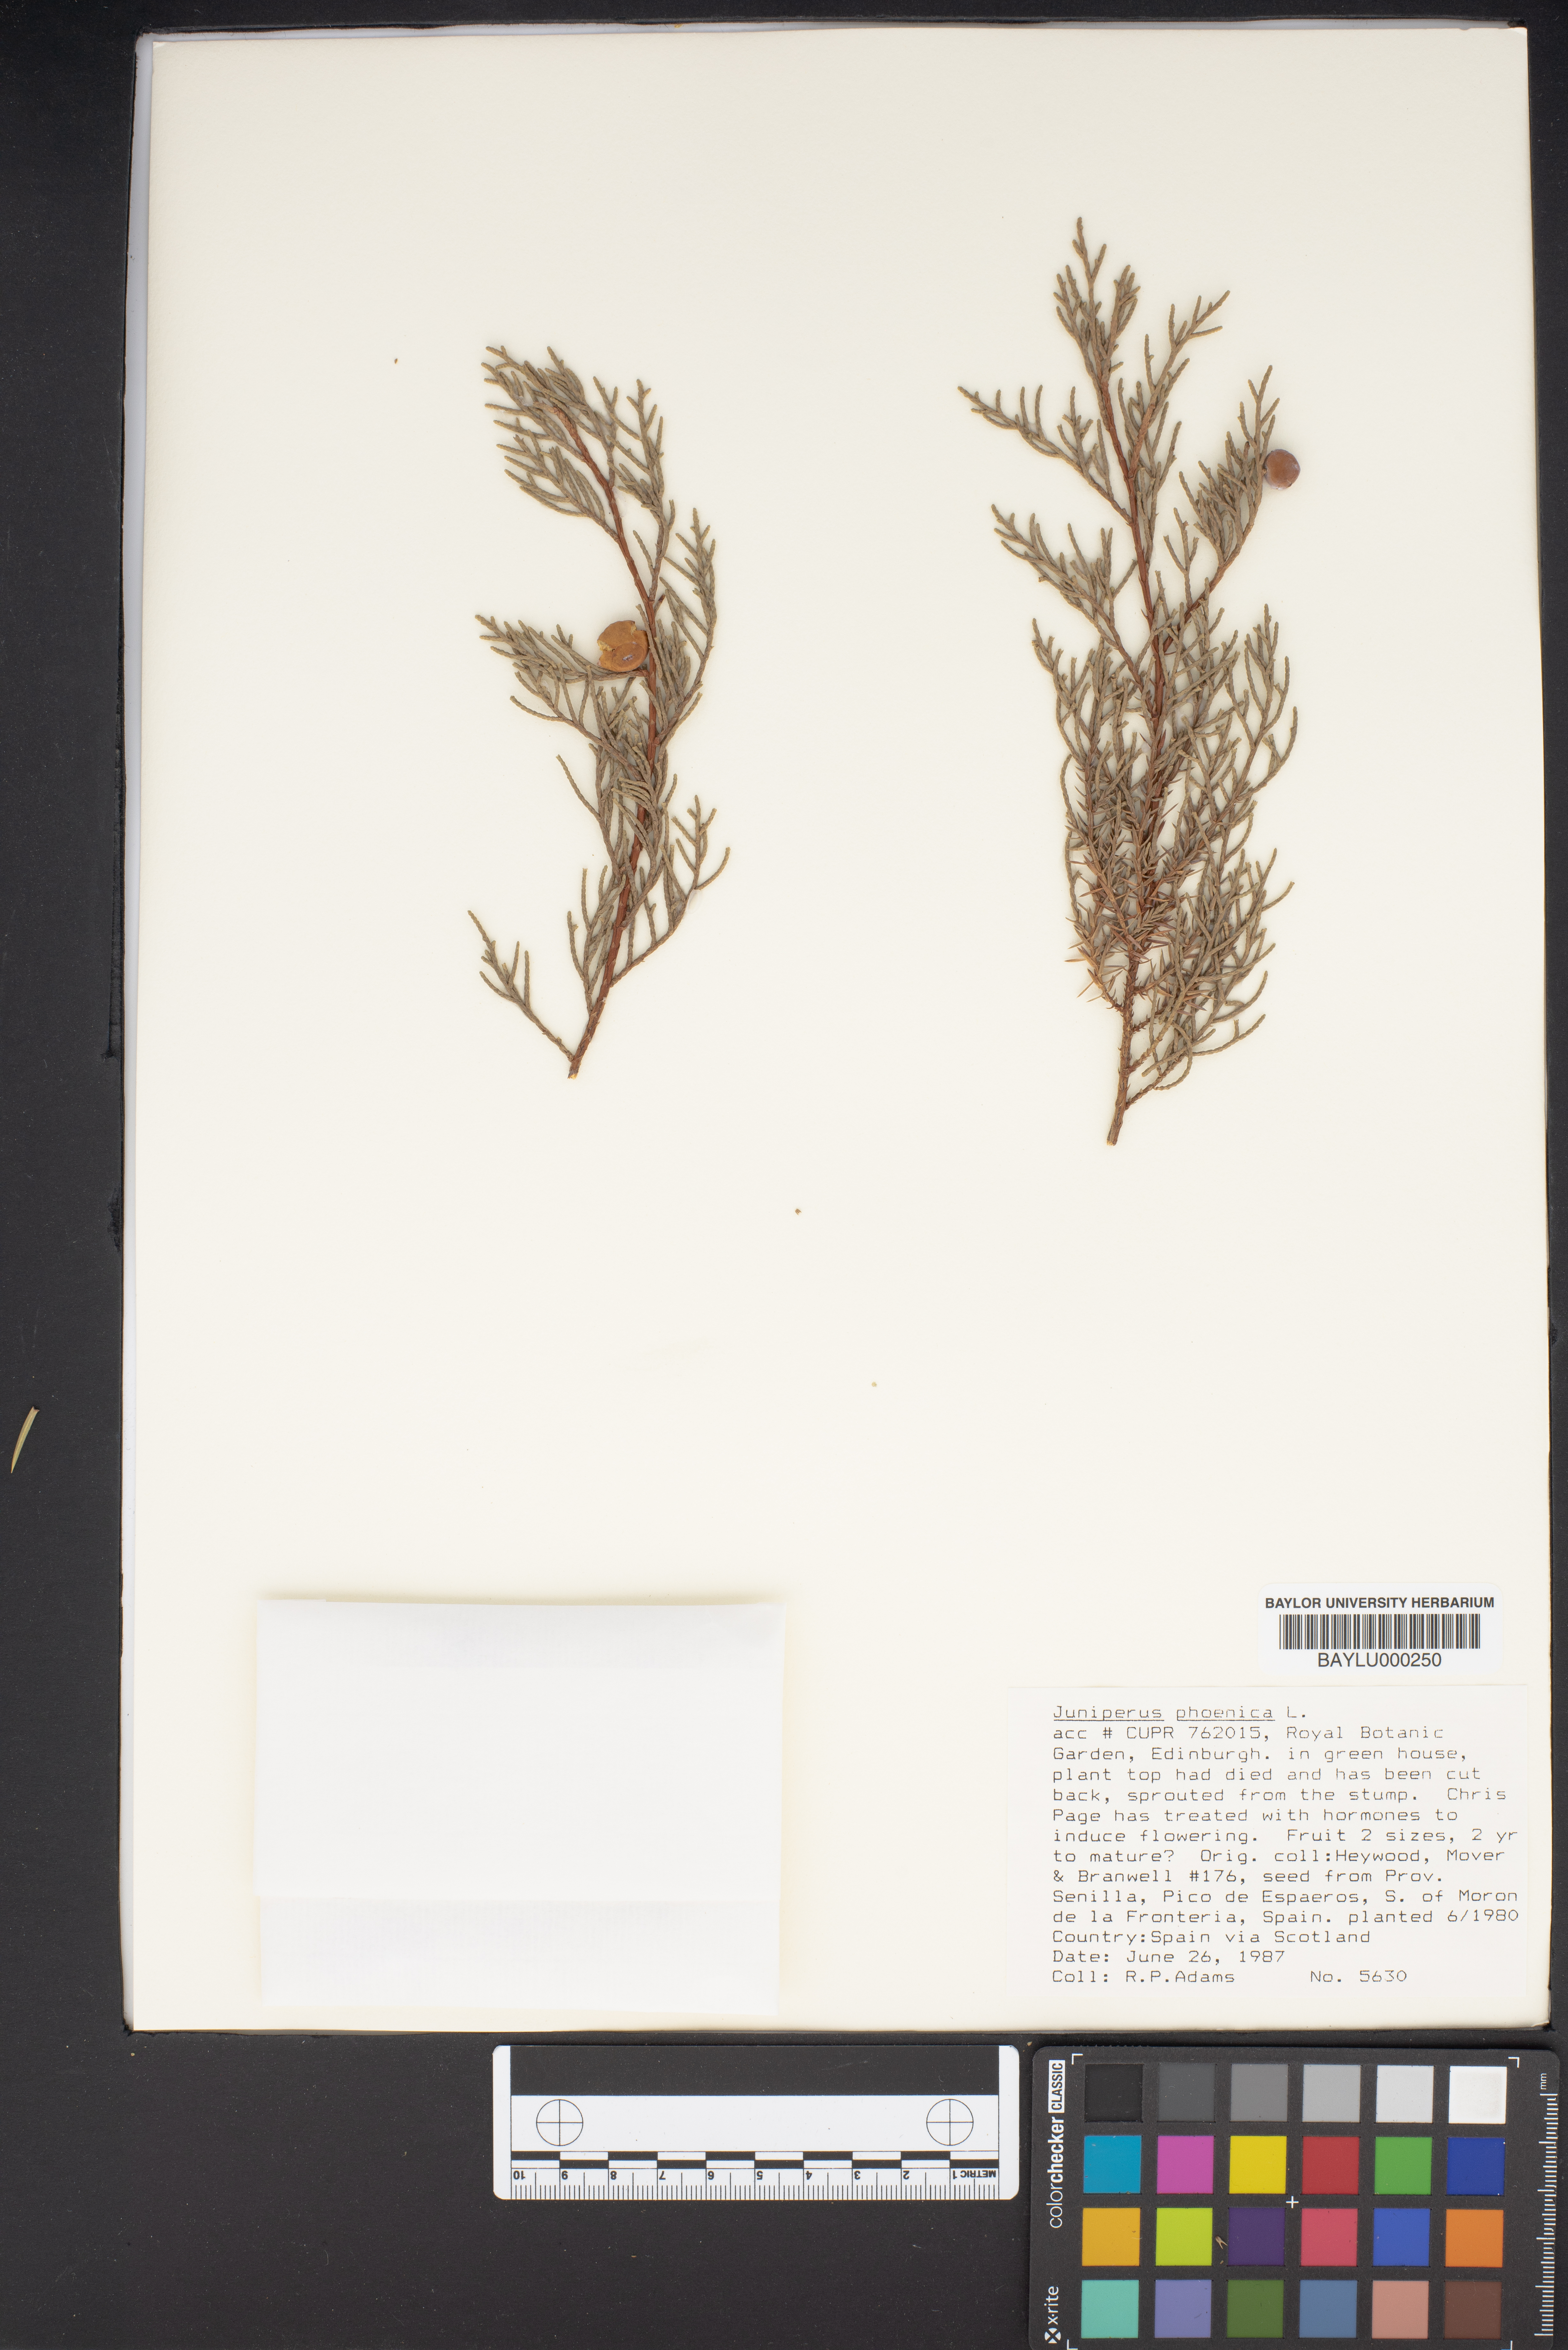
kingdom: Plantae
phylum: Tracheophyta
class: Pinopsida
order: Pinales
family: Cupressaceae
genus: Juniperus
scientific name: Juniperus phoenicea
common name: Phoenician juniper
